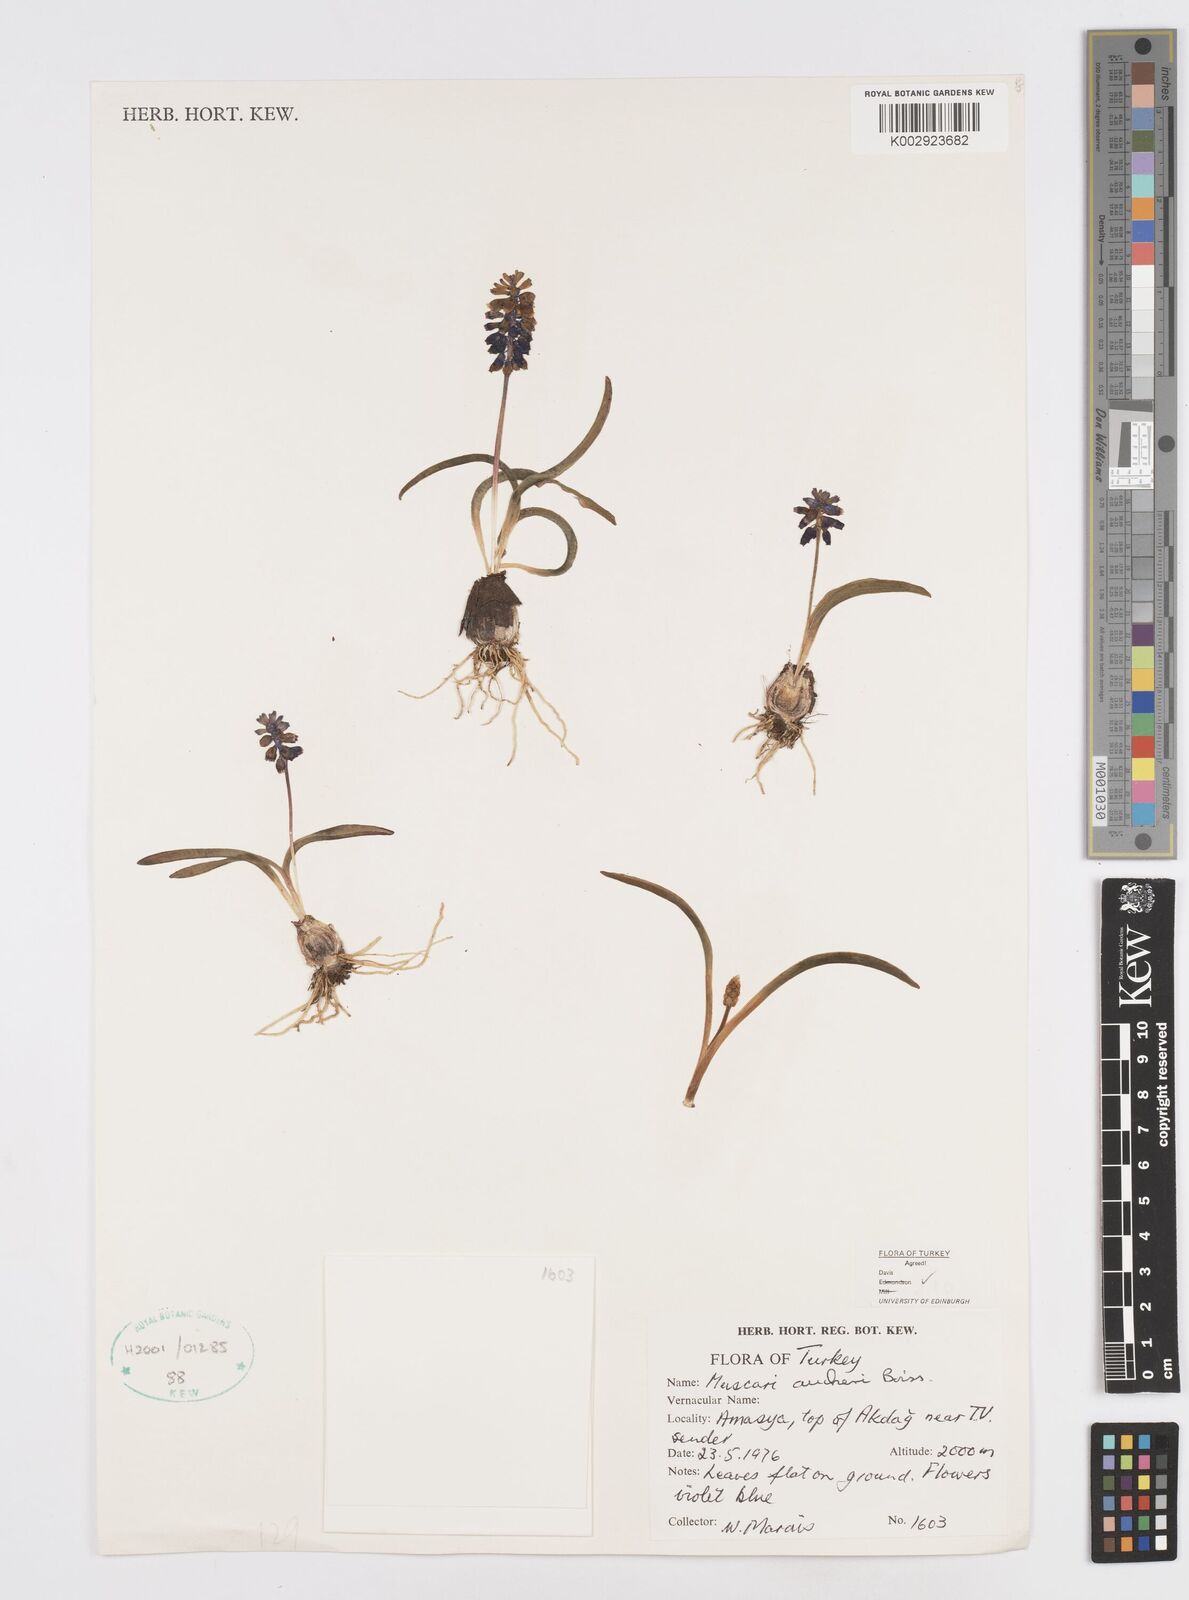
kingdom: Plantae
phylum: Tracheophyta
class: Liliopsida
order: Asparagales
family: Asparagaceae
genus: Muscari
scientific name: Muscari aucheri
